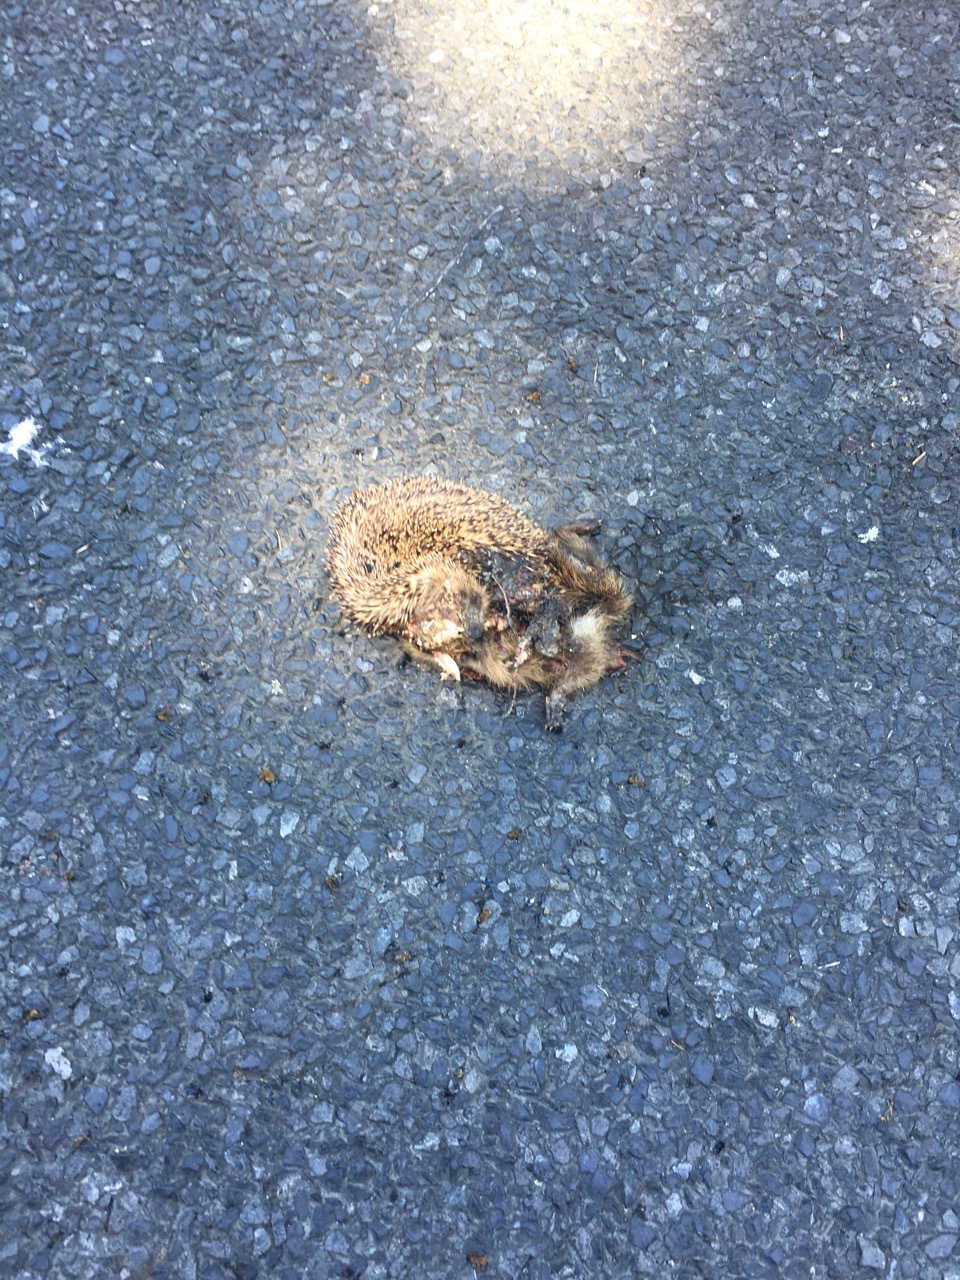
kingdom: Animalia
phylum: Chordata
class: Mammalia
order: Erinaceomorpha
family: Erinaceidae
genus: Erinaceus
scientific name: Erinaceus
